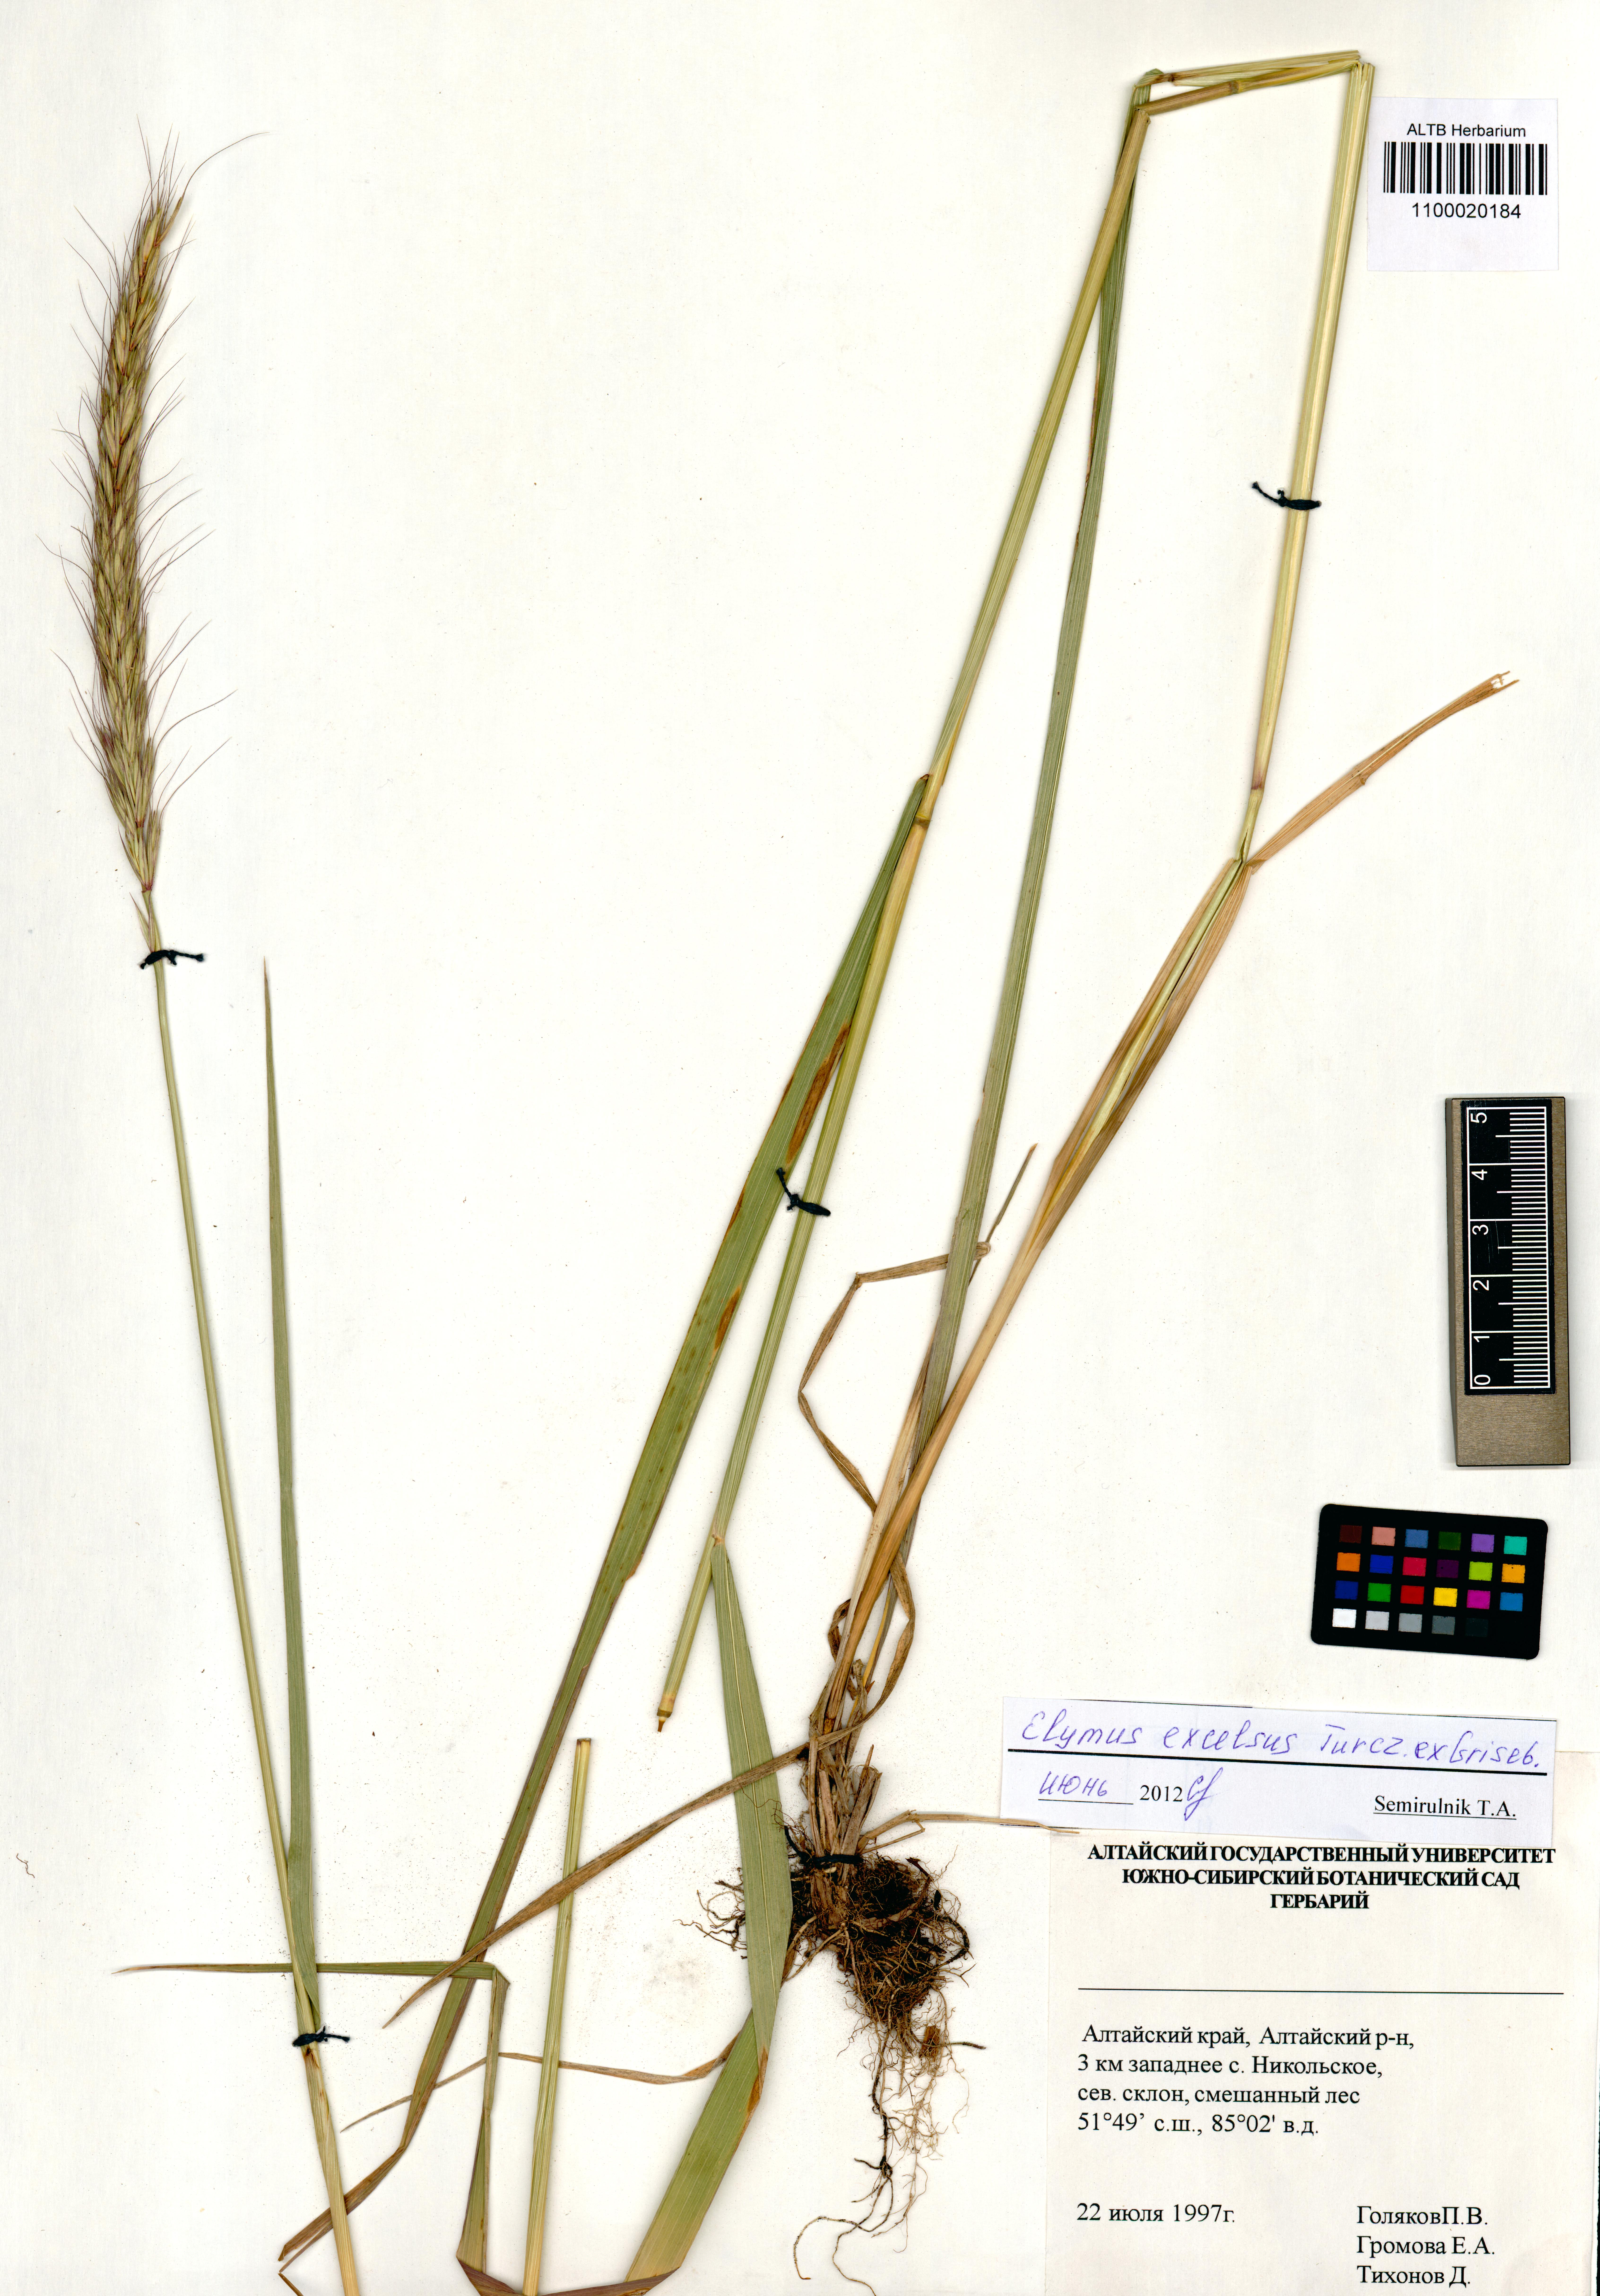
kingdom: Plantae
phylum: Tracheophyta
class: Liliopsida
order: Poales
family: Poaceae
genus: Elymus
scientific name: Elymus dahuricus
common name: Dahurian wild rye
